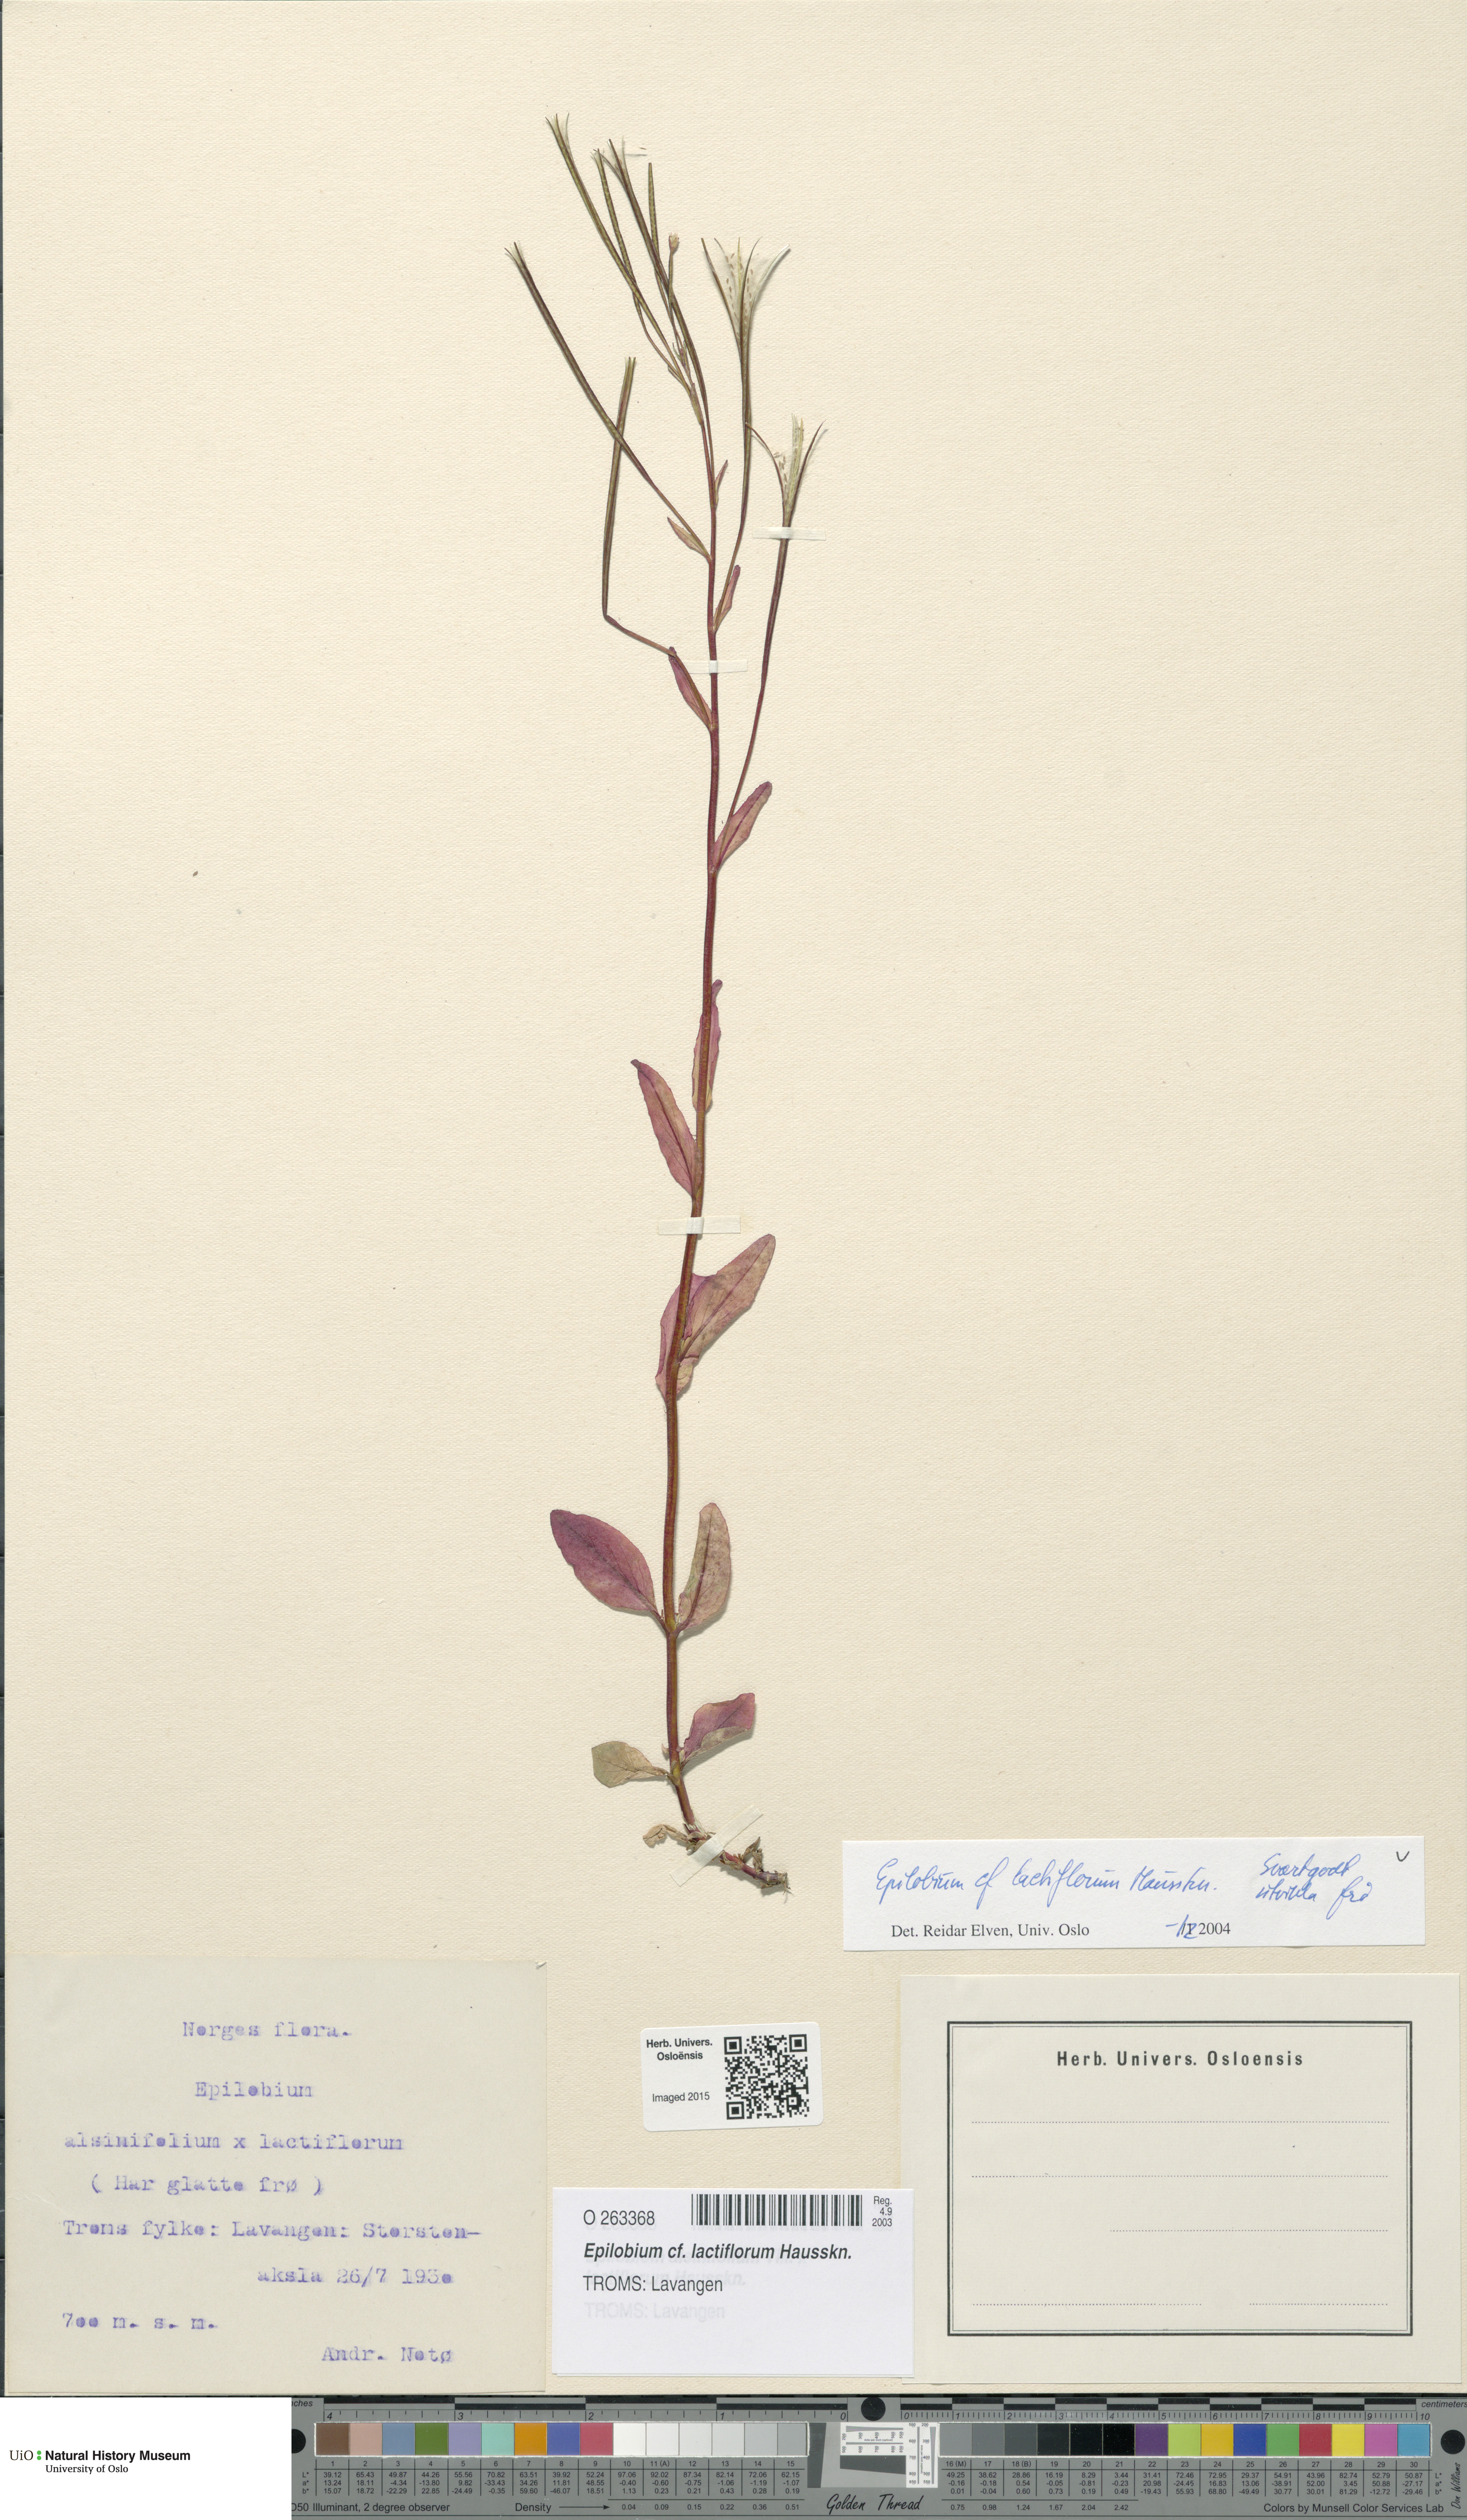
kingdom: Plantae
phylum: Tracheophyta
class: Magnoliopsida
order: Myrtales
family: Onagraceae
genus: Epilobium
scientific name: Epilobium lactiflorum
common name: Milkflower willowherb
